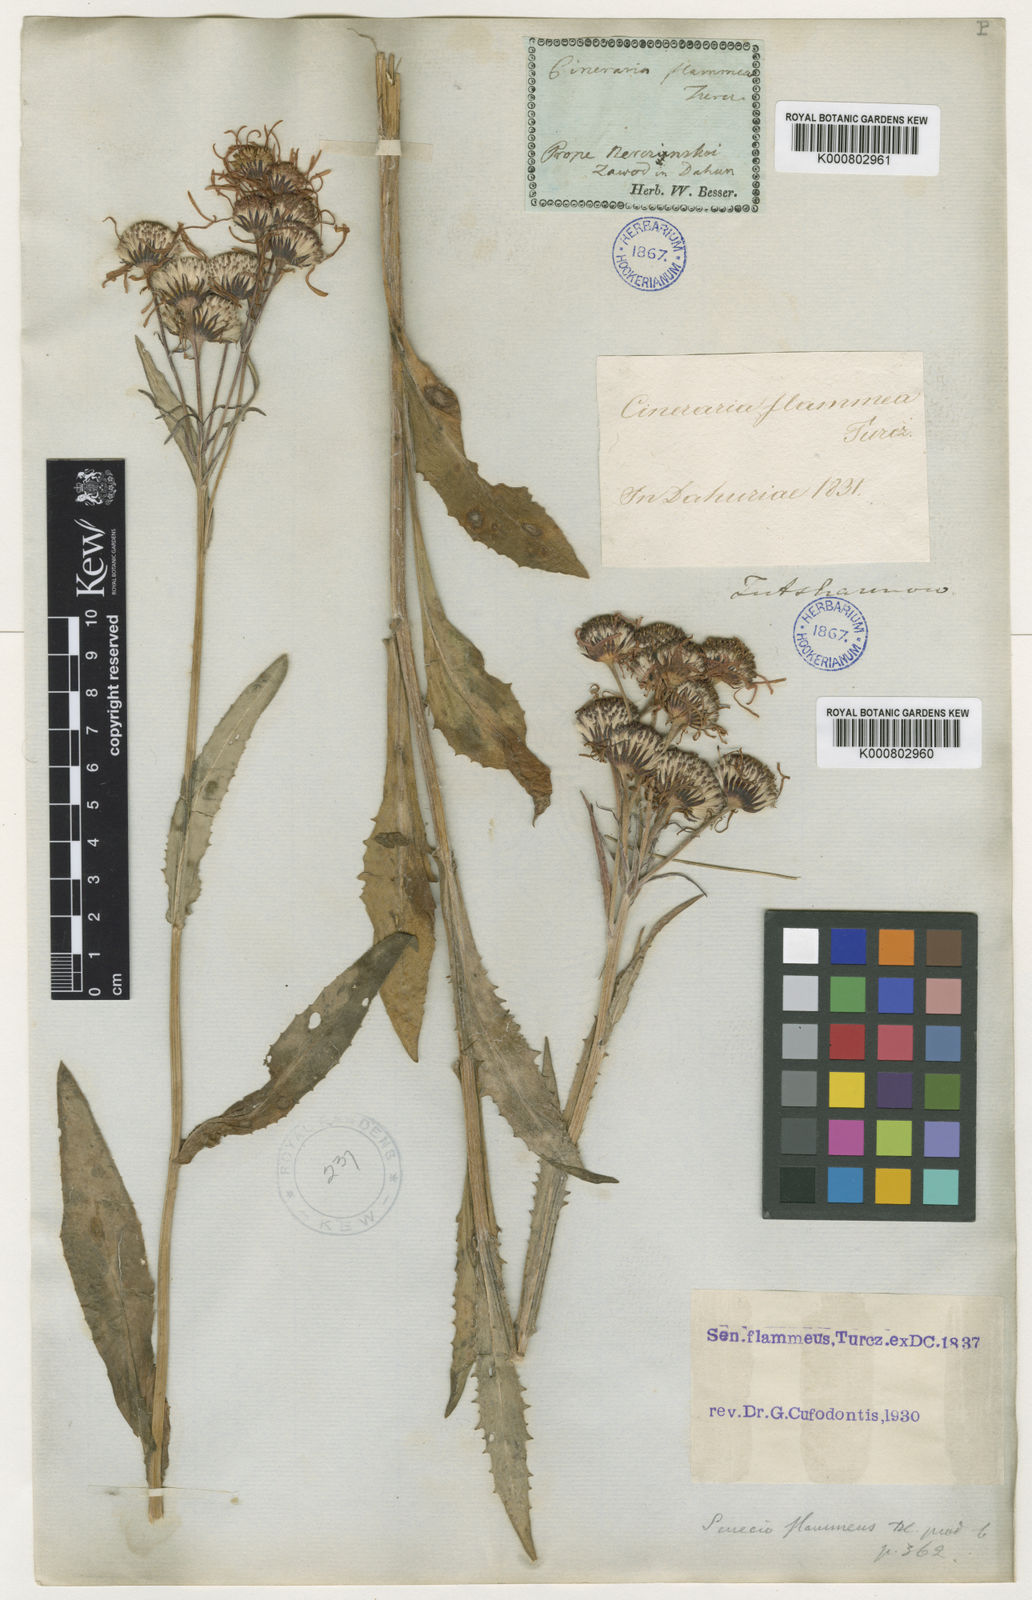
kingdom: Plantae
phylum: Tracheophyta
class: Magnoliopsida
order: Asterales
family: Asteraceae
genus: Tephroseris
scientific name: Tephroseris flammea
